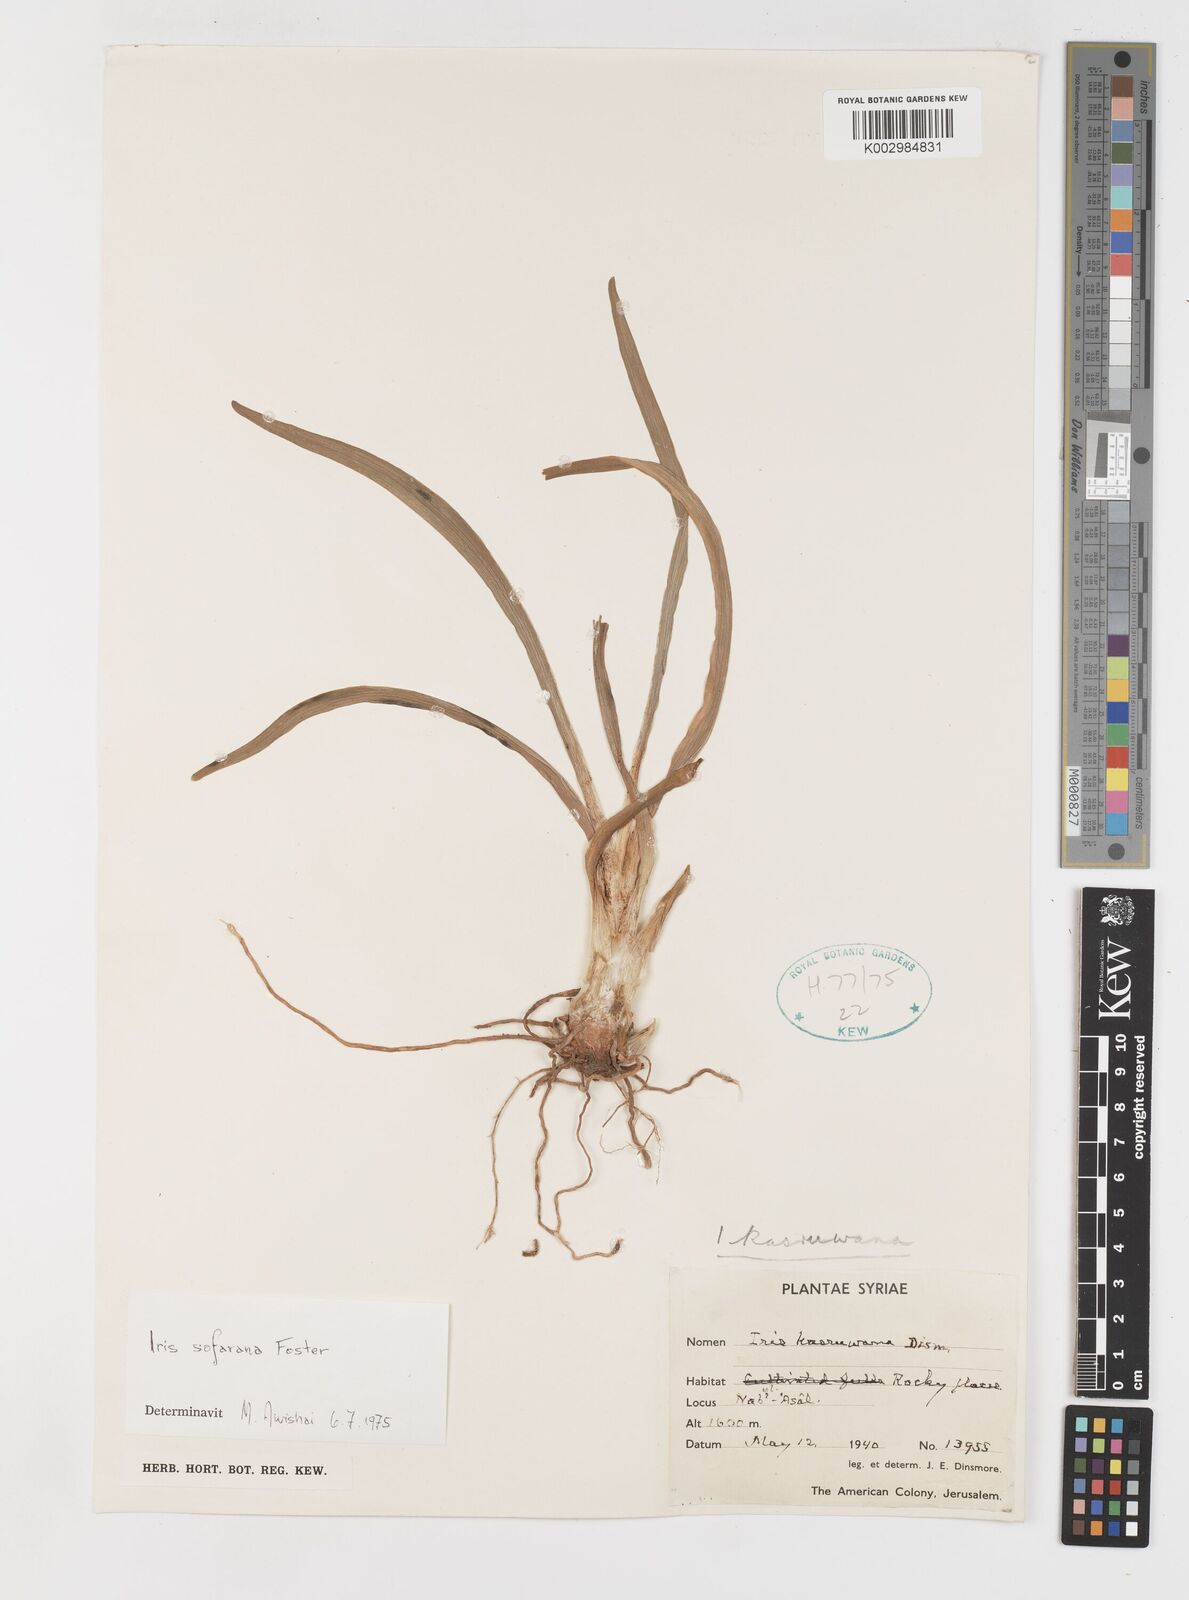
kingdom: Plantae
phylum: Tracheophyta
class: Liliopsida
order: Asparagales
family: Iridaceae
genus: Iris
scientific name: Iris susiana
